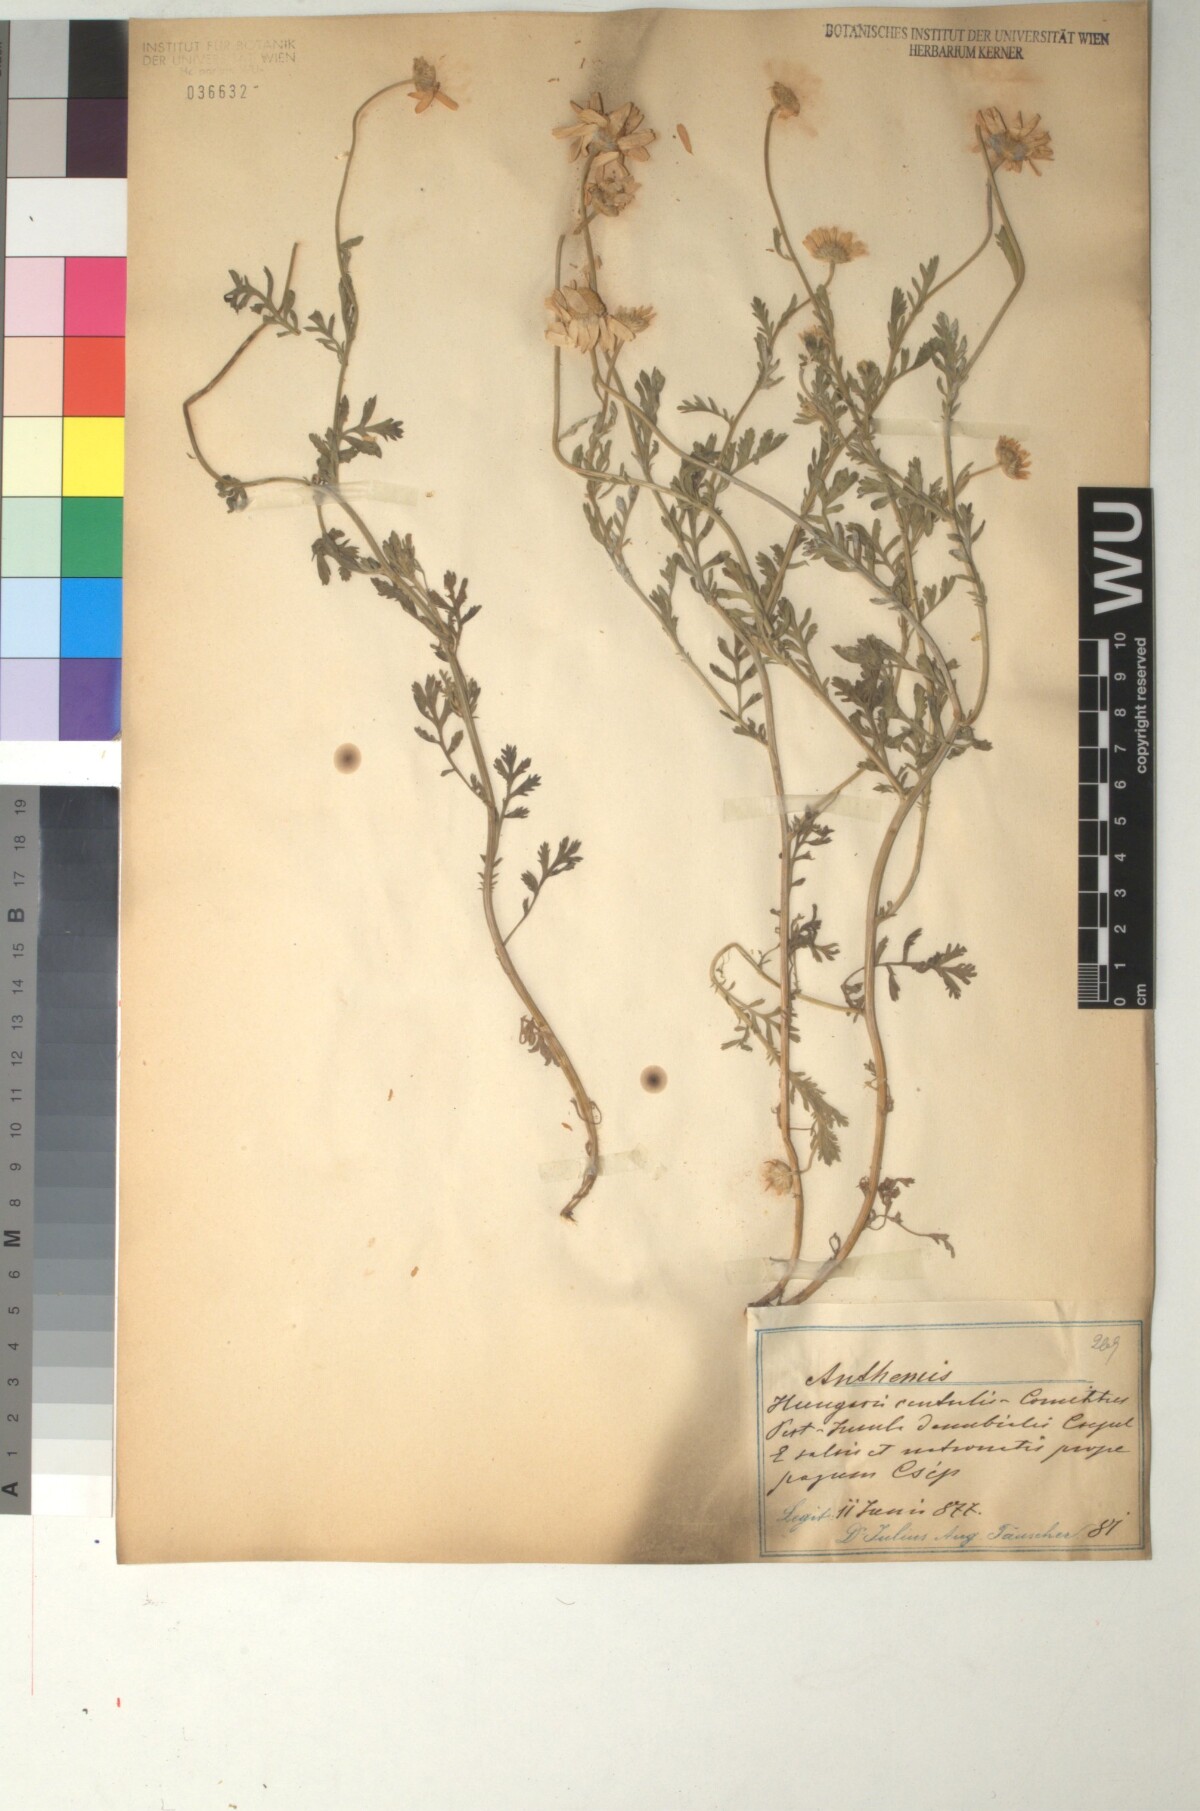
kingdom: Plantae
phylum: Tracheophyta
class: Magnoliopsida
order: Asterales
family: Asteraceae
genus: Anthemis
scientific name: Anthemis ruthenica
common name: Eastern chamomile
